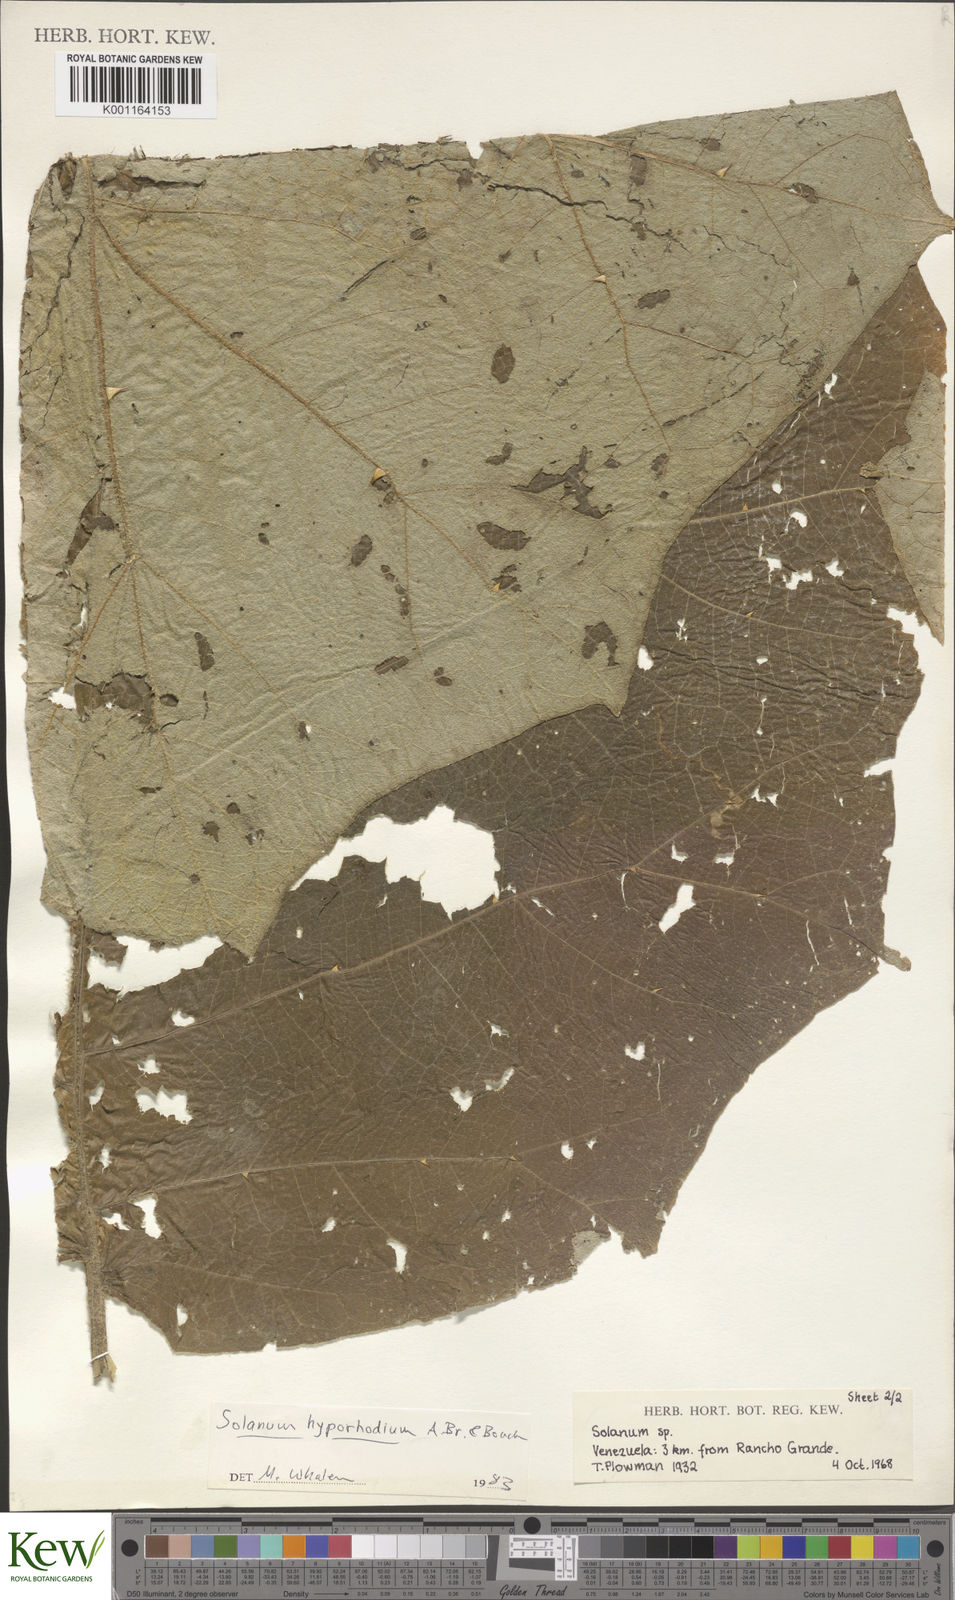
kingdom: Plantae
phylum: Tracheophyta
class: Magnoliopsida
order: Solanales
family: Solanaceae
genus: Solanum
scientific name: Solanum hyporhodium
